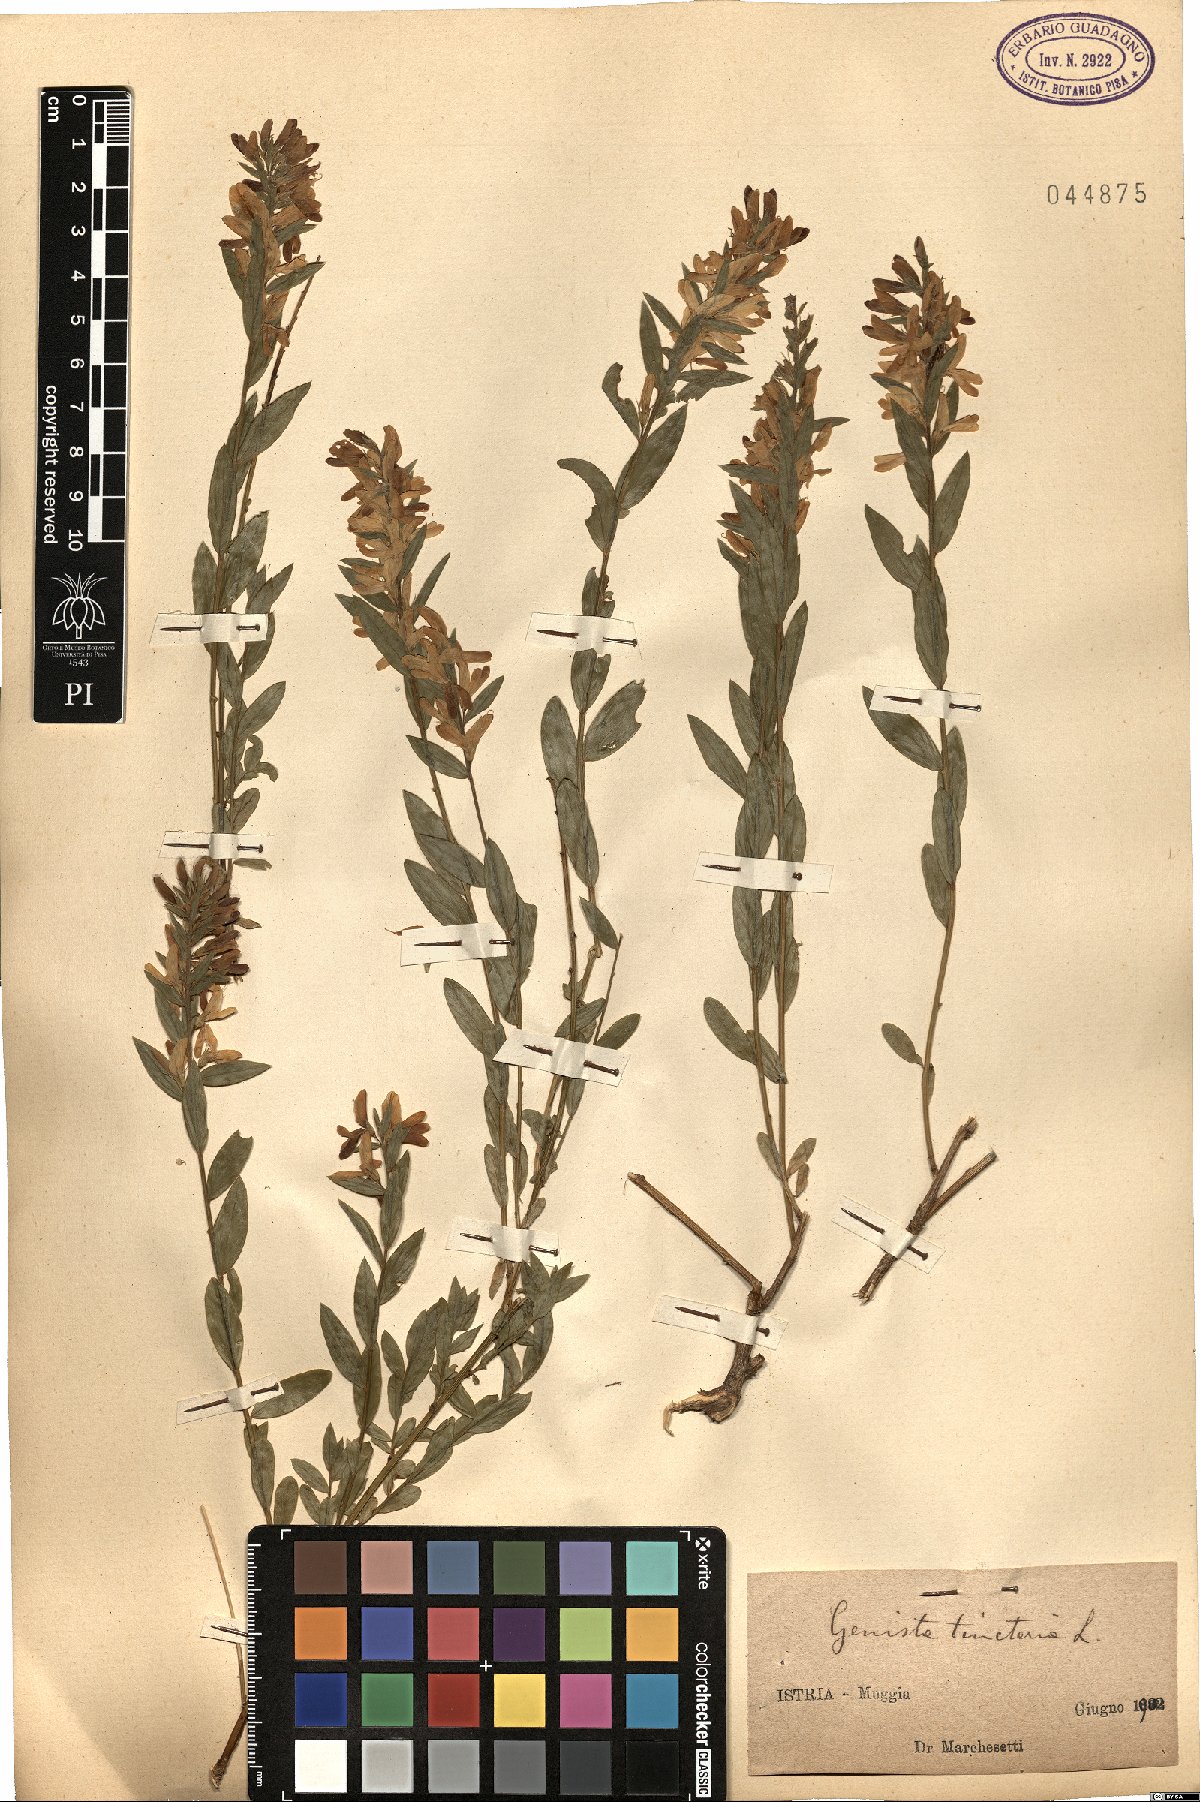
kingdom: Plantae
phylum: Tracheophyta
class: Magnoliopsida
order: Fabales
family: Fabaceae
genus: Genista
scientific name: Genista tinctoria
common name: Dyer's greenweed
